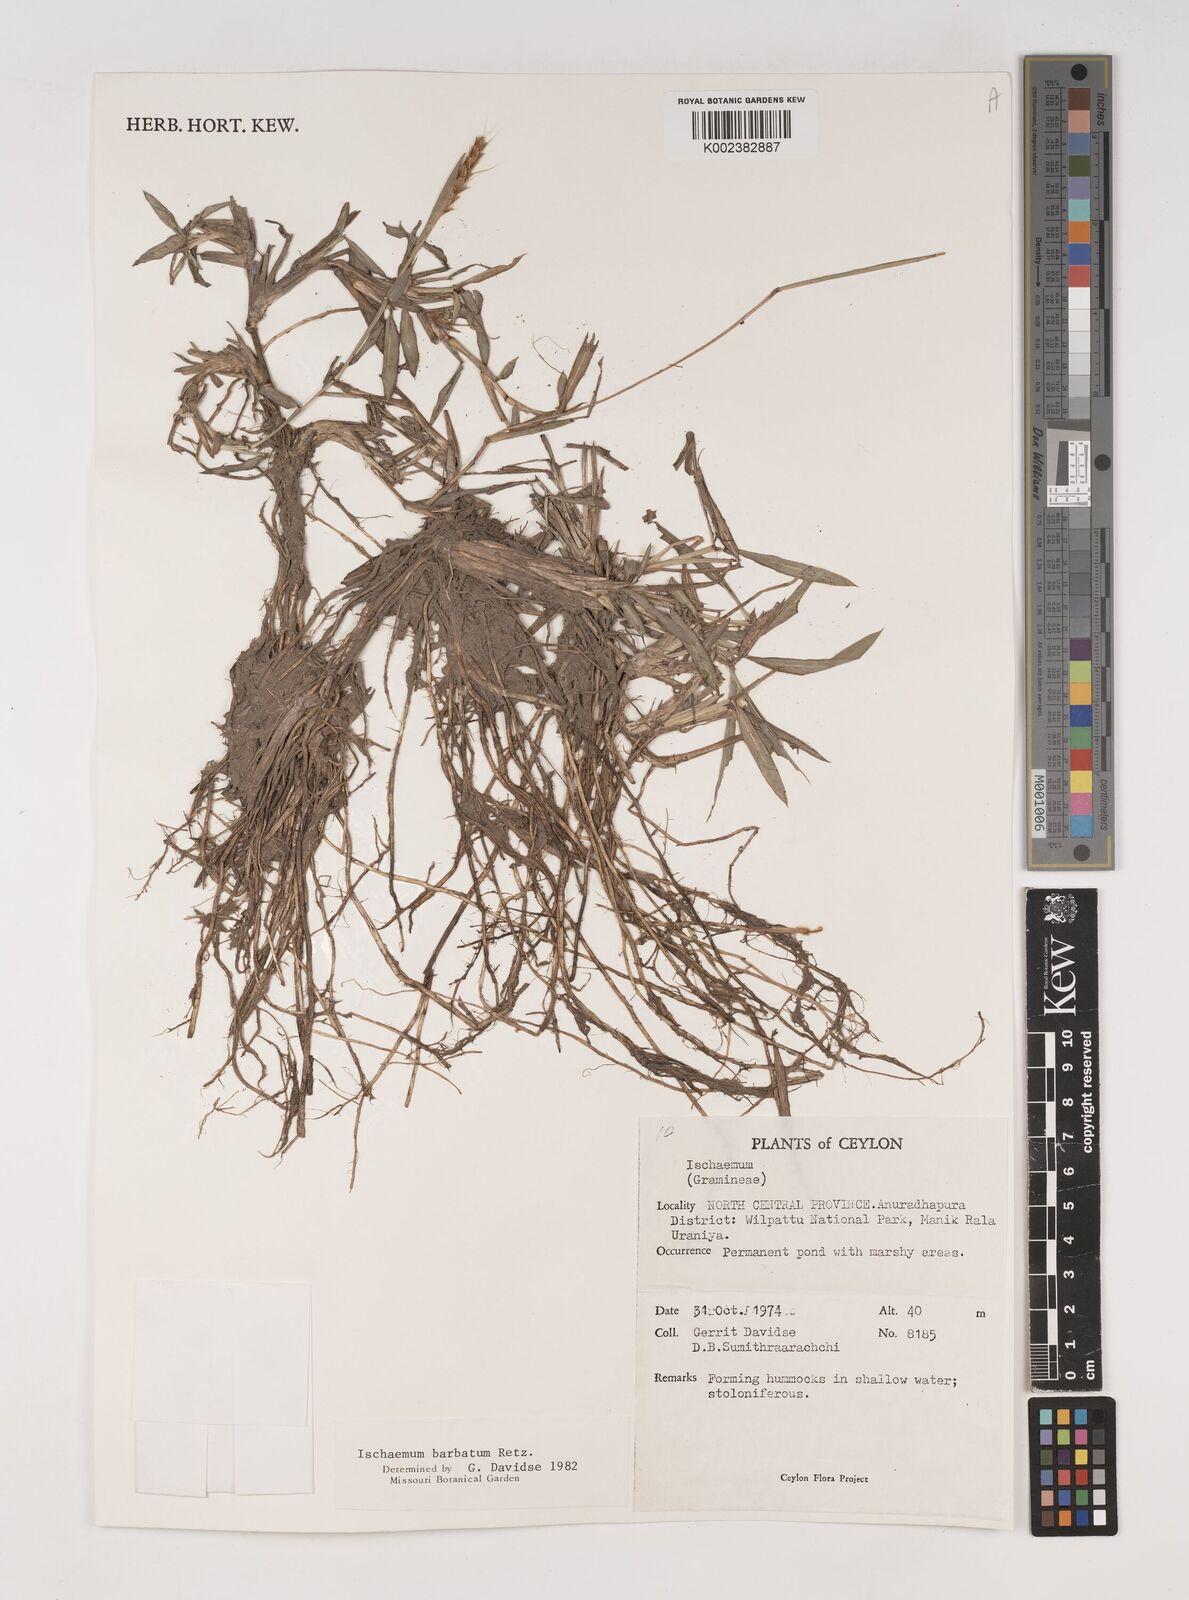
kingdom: Plantae
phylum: Tracheophyta
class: Liliopsida
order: Poales
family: Poaceae
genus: Ischaemum
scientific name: Ischaemum
